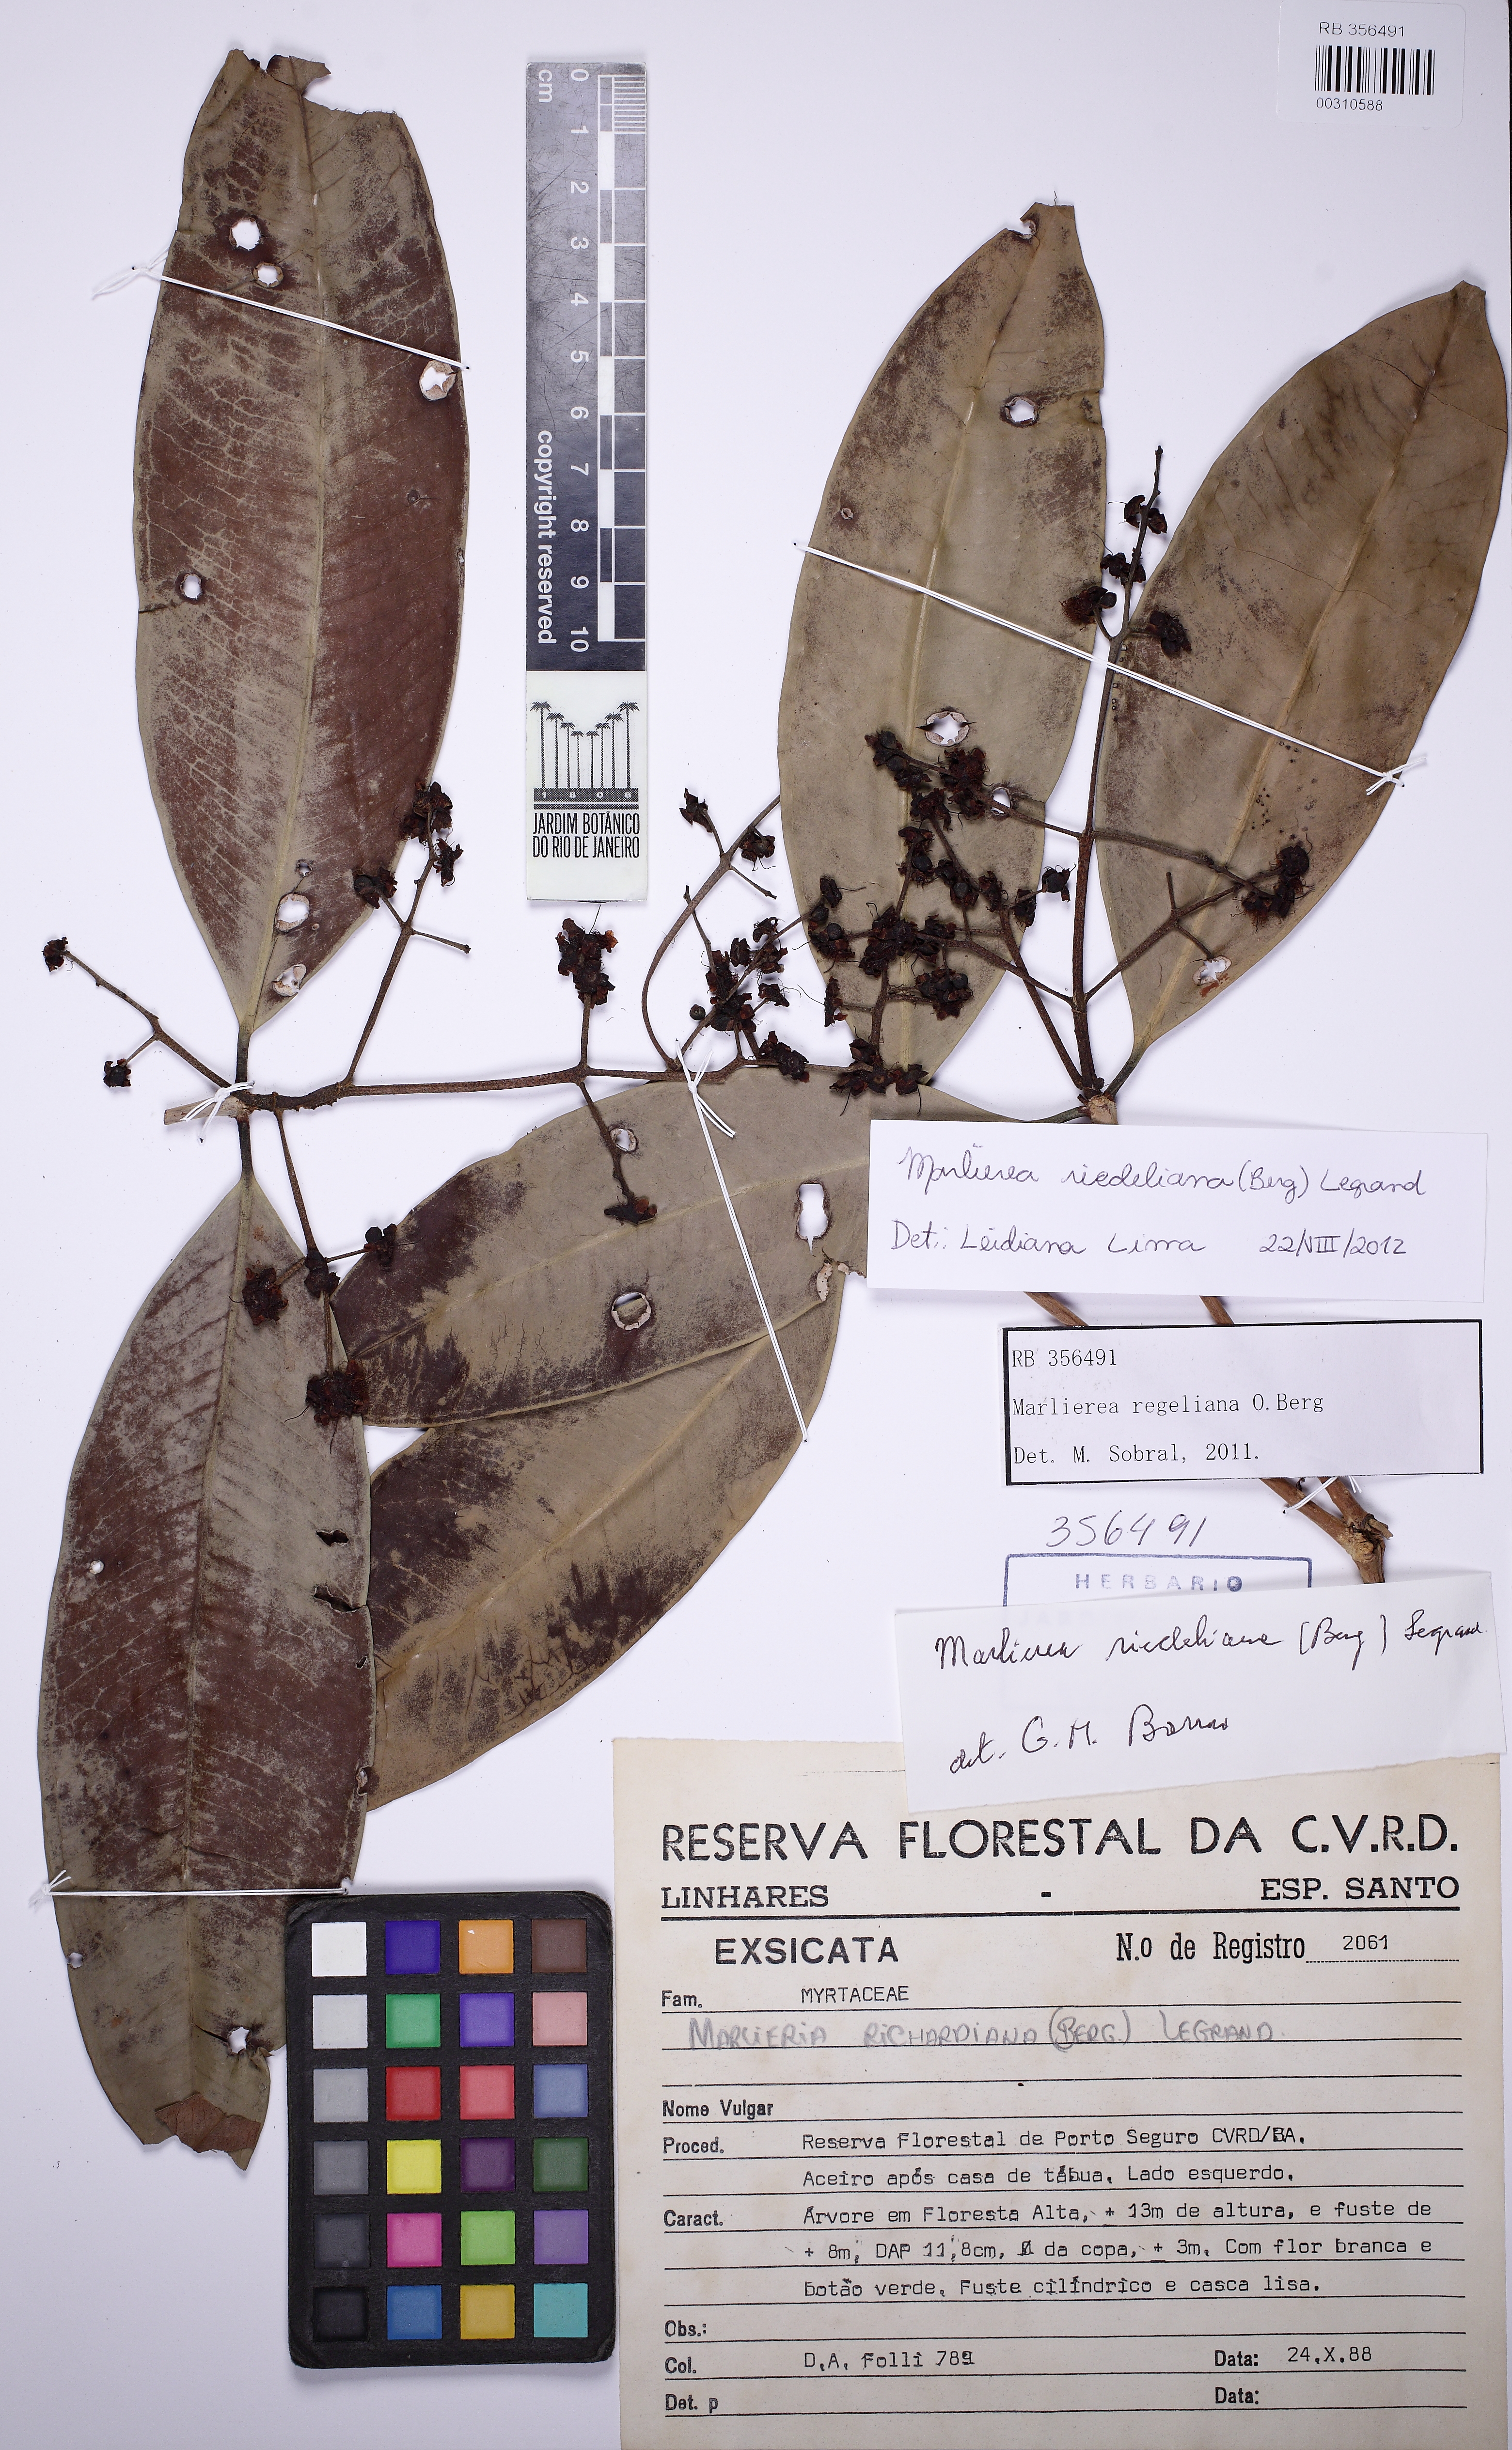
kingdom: Plantae
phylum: Tracheophyta
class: Magnoliopsida
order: Myrtales
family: Myrtaceae
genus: Myrcia
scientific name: Myrcia neoriedeliana
